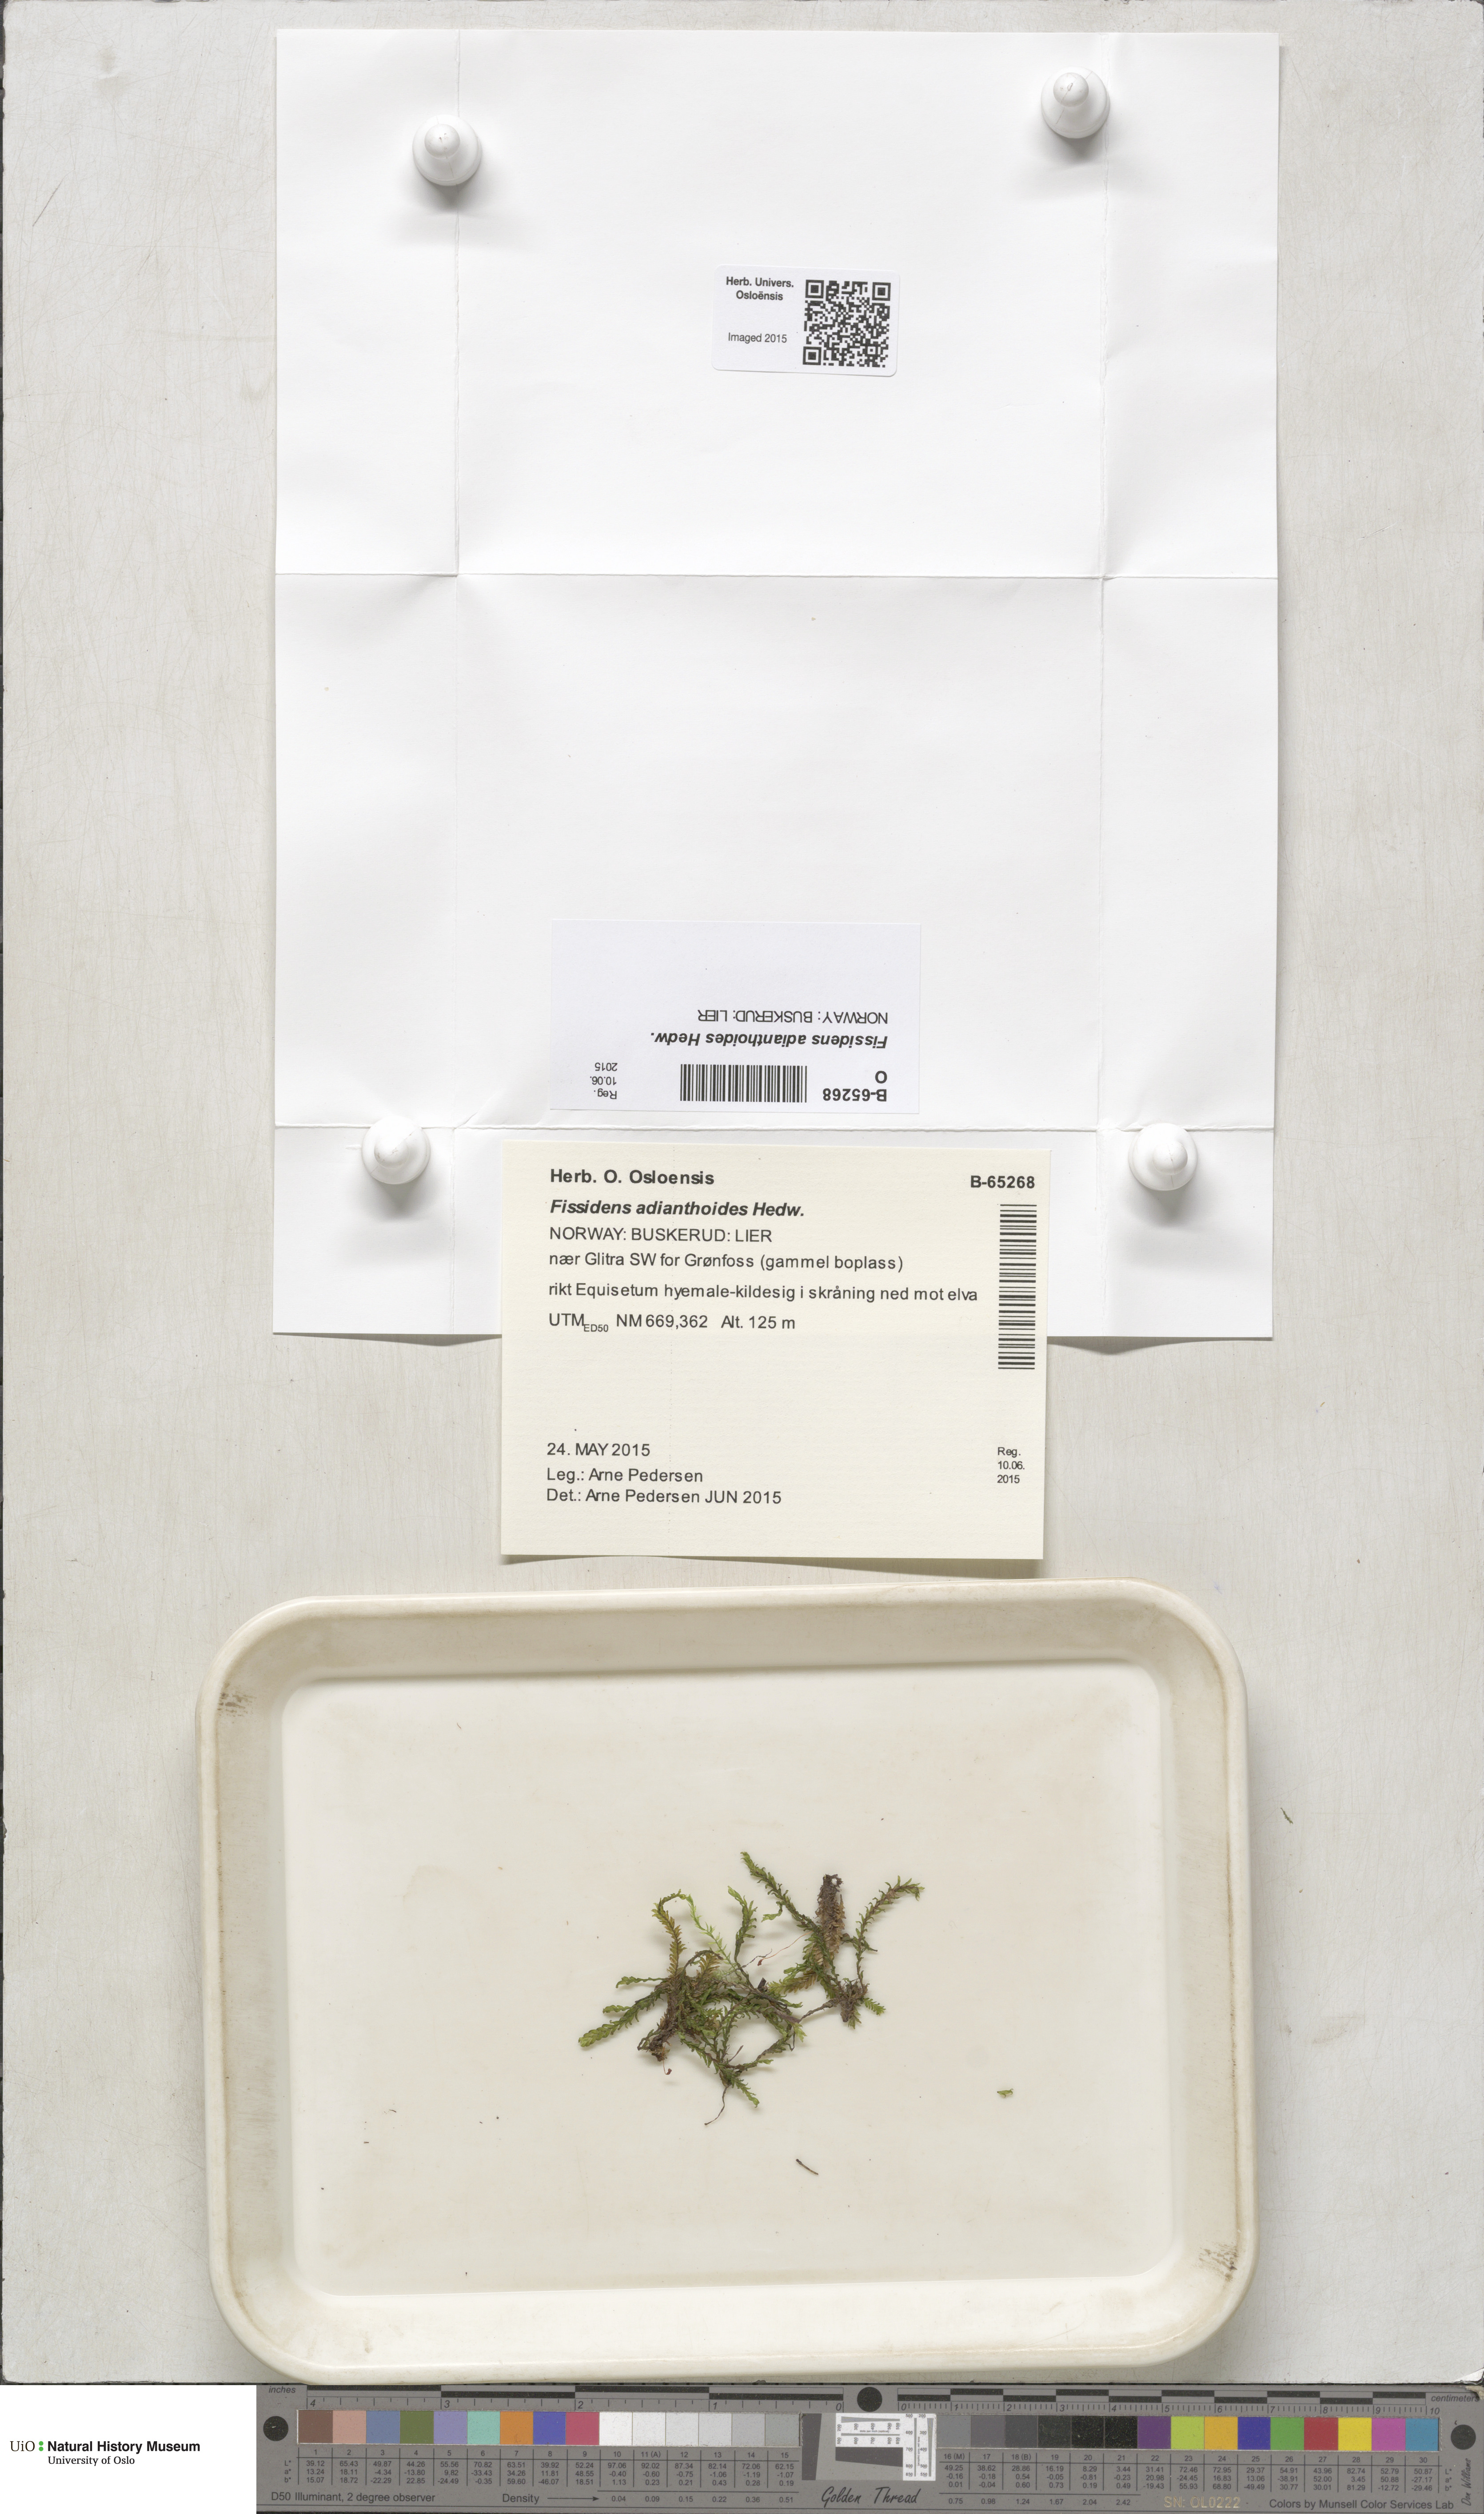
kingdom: Plantae
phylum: Bryophyta
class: Bryopsida
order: Dicranales
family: Fissidentaceae
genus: Fissidens
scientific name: Fissidens adianthoides
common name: Maidenhair pocket moss
